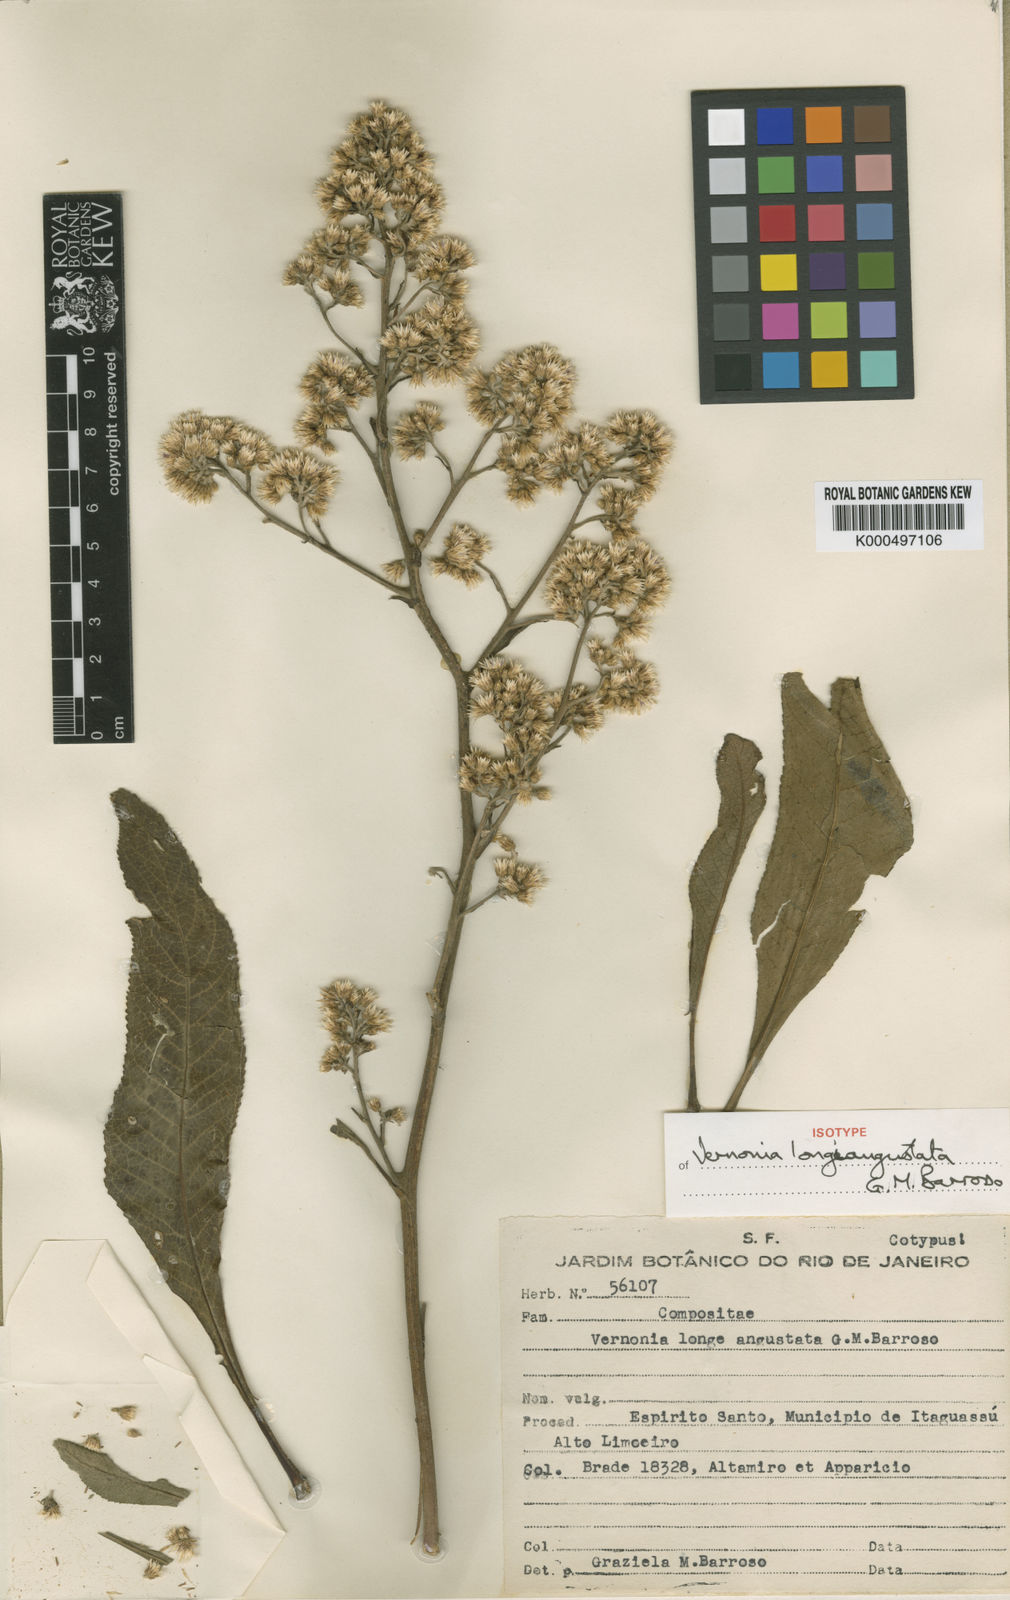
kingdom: Plantae
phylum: Tracheophyta
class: Magnoliopsida
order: Asterales
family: Asteraceae
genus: Cololobus
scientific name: Cololobus longiangustatus
